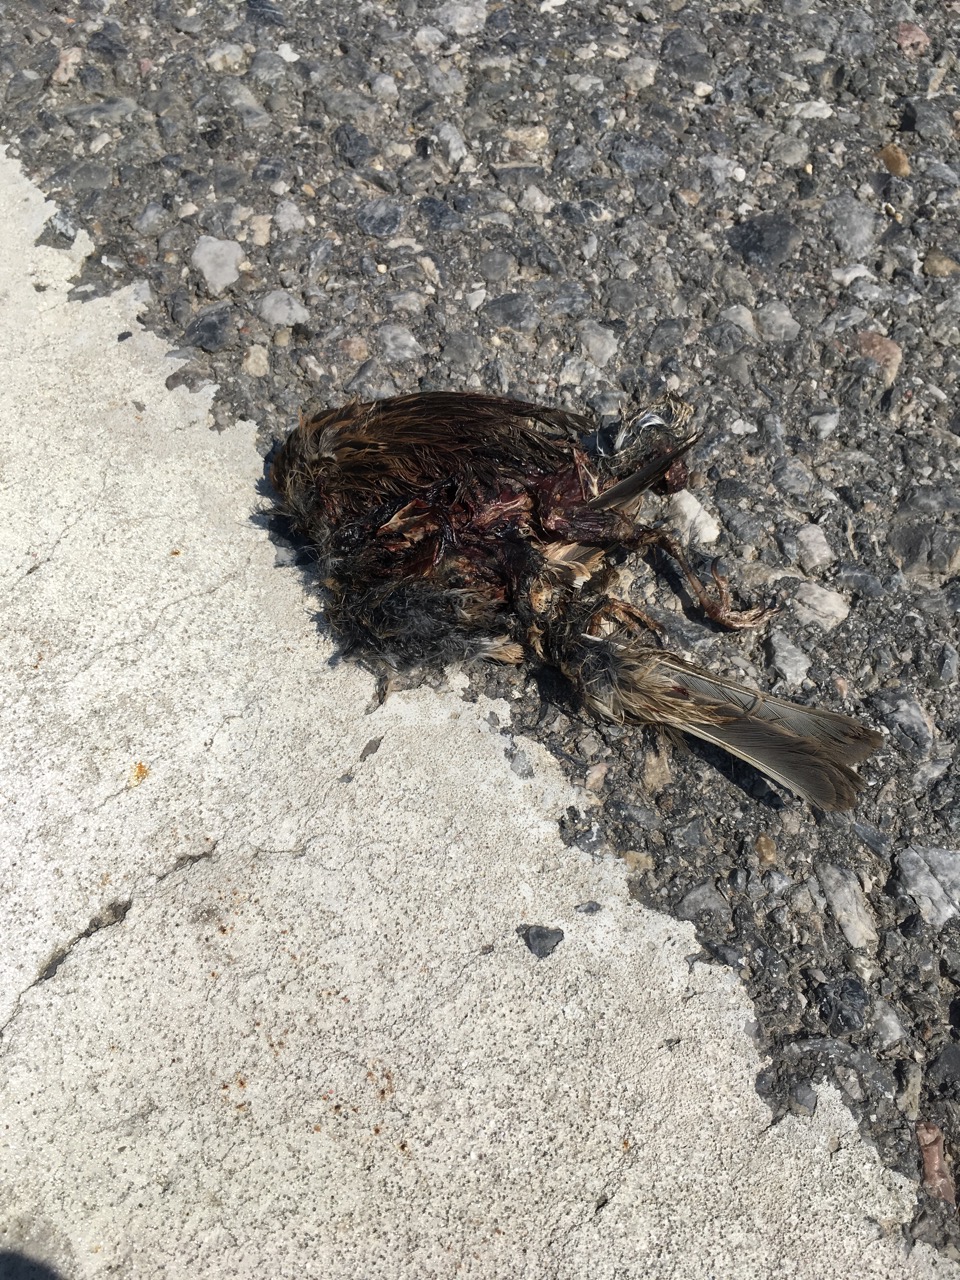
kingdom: Animalia
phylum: Chordata
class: Aves
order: Passeriformes
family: Passeridae
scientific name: Passeridae
